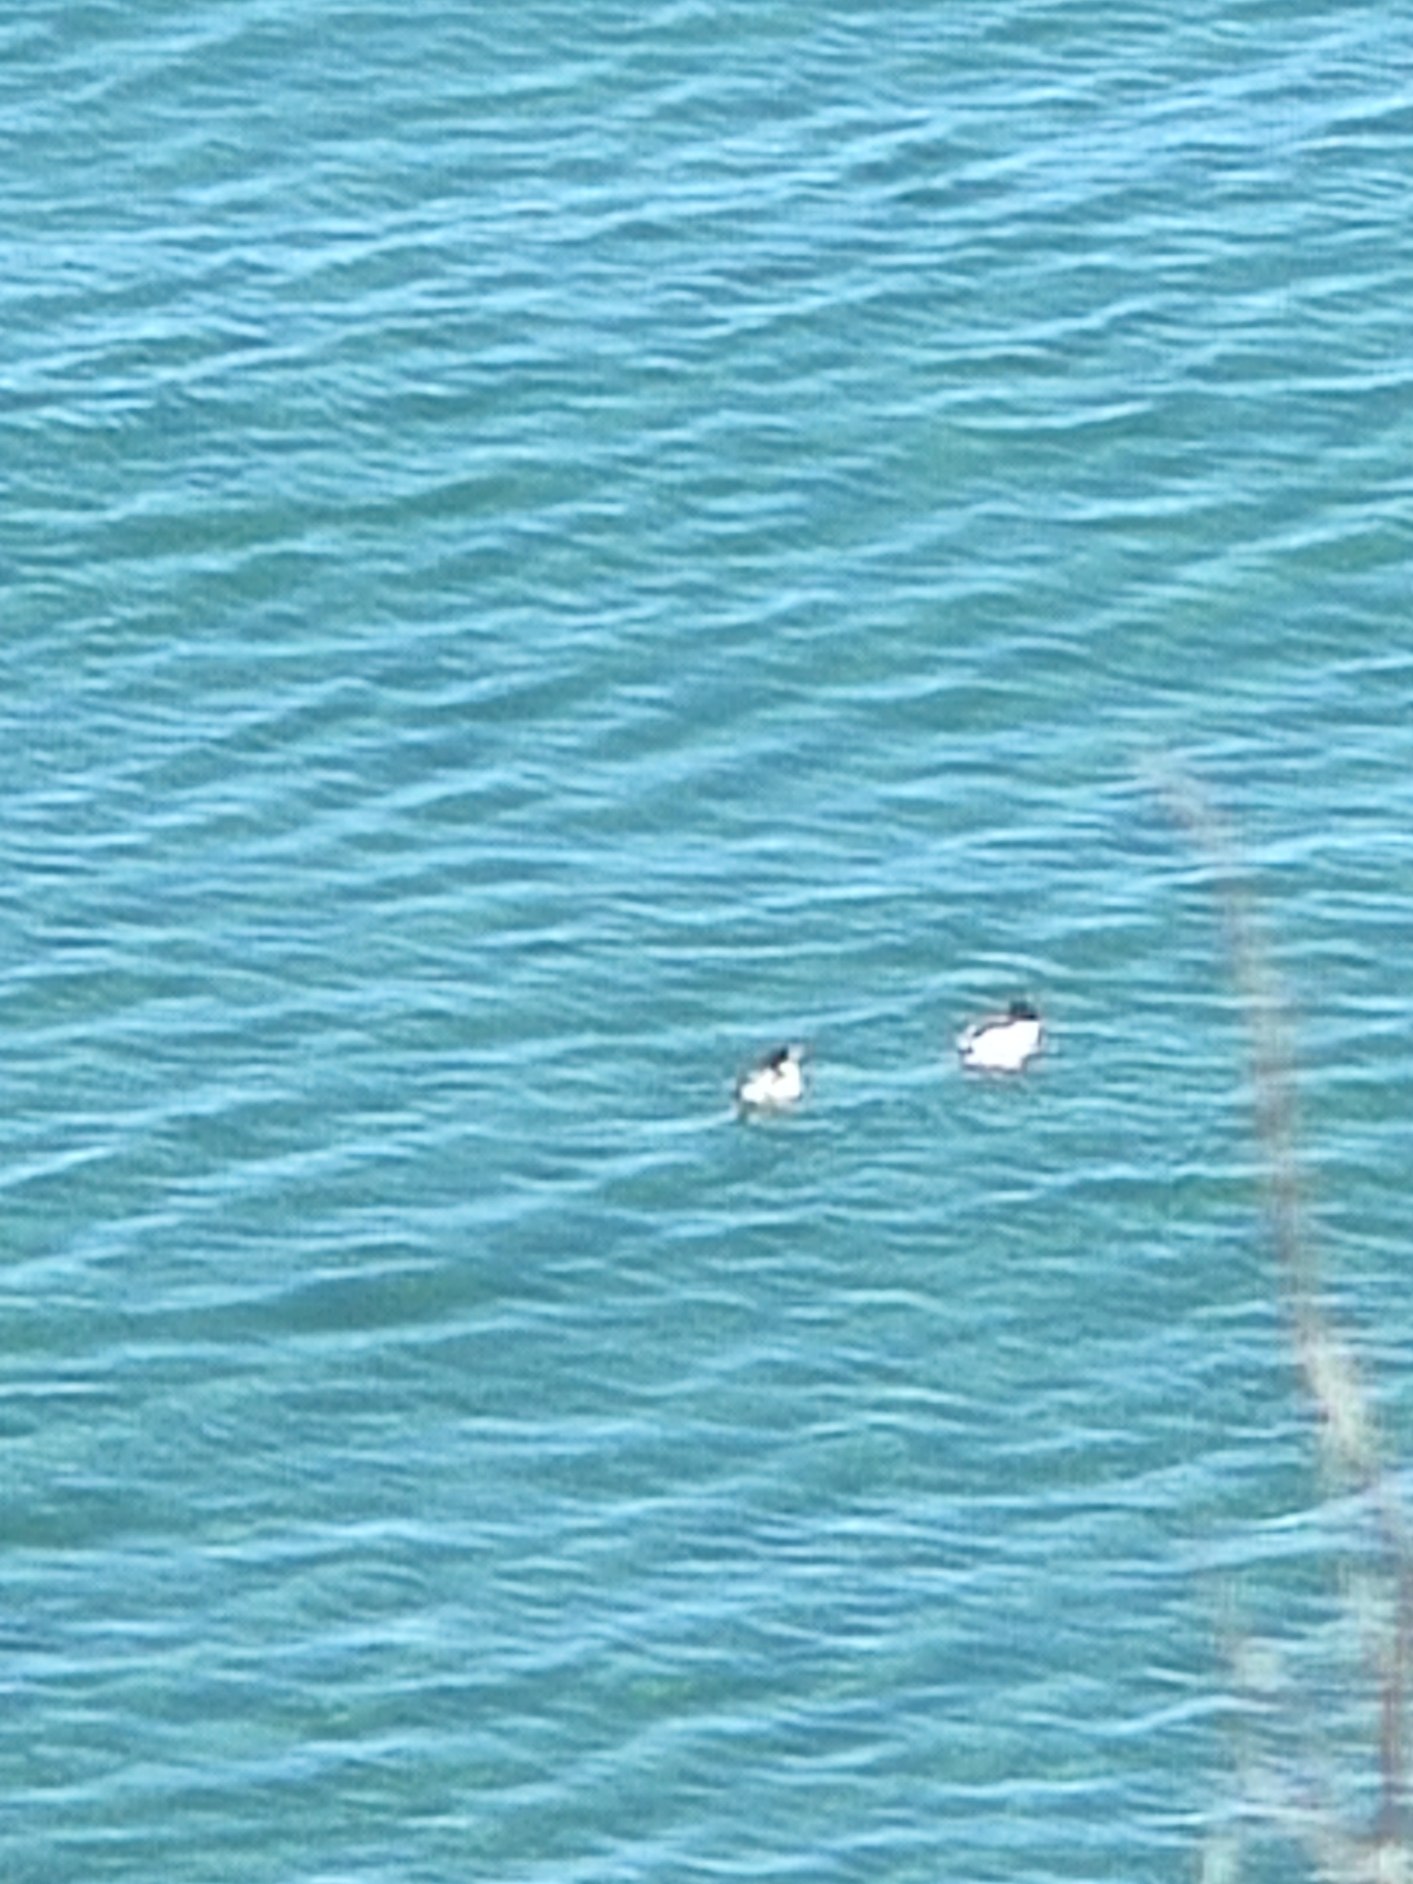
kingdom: Animalia
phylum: Chordata
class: Aves
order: Anseriformes
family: Anatidae
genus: Mergus
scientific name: Mergus merganser
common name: Stor skallesluger
